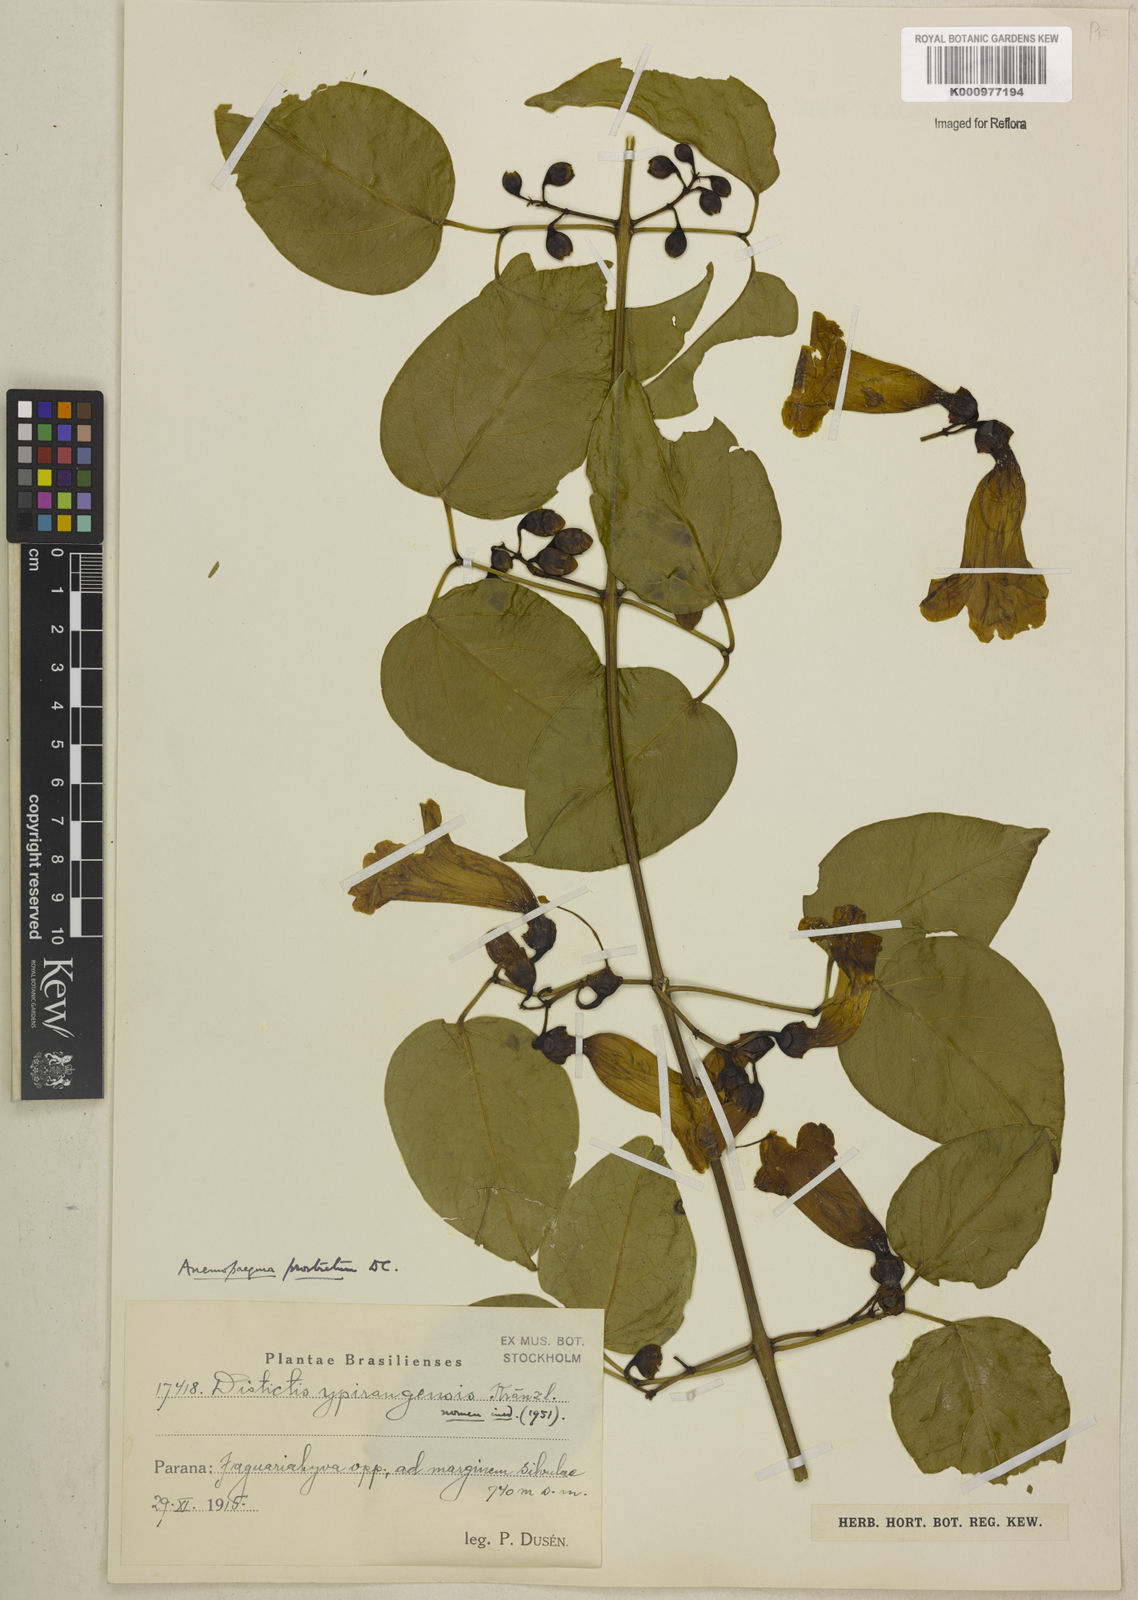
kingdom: Plantae
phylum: Tracheophyta
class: Magnoliopsida
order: Lamiales
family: Bignoniaceae
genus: Anemopaegma
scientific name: Anemopaegma prostratum
